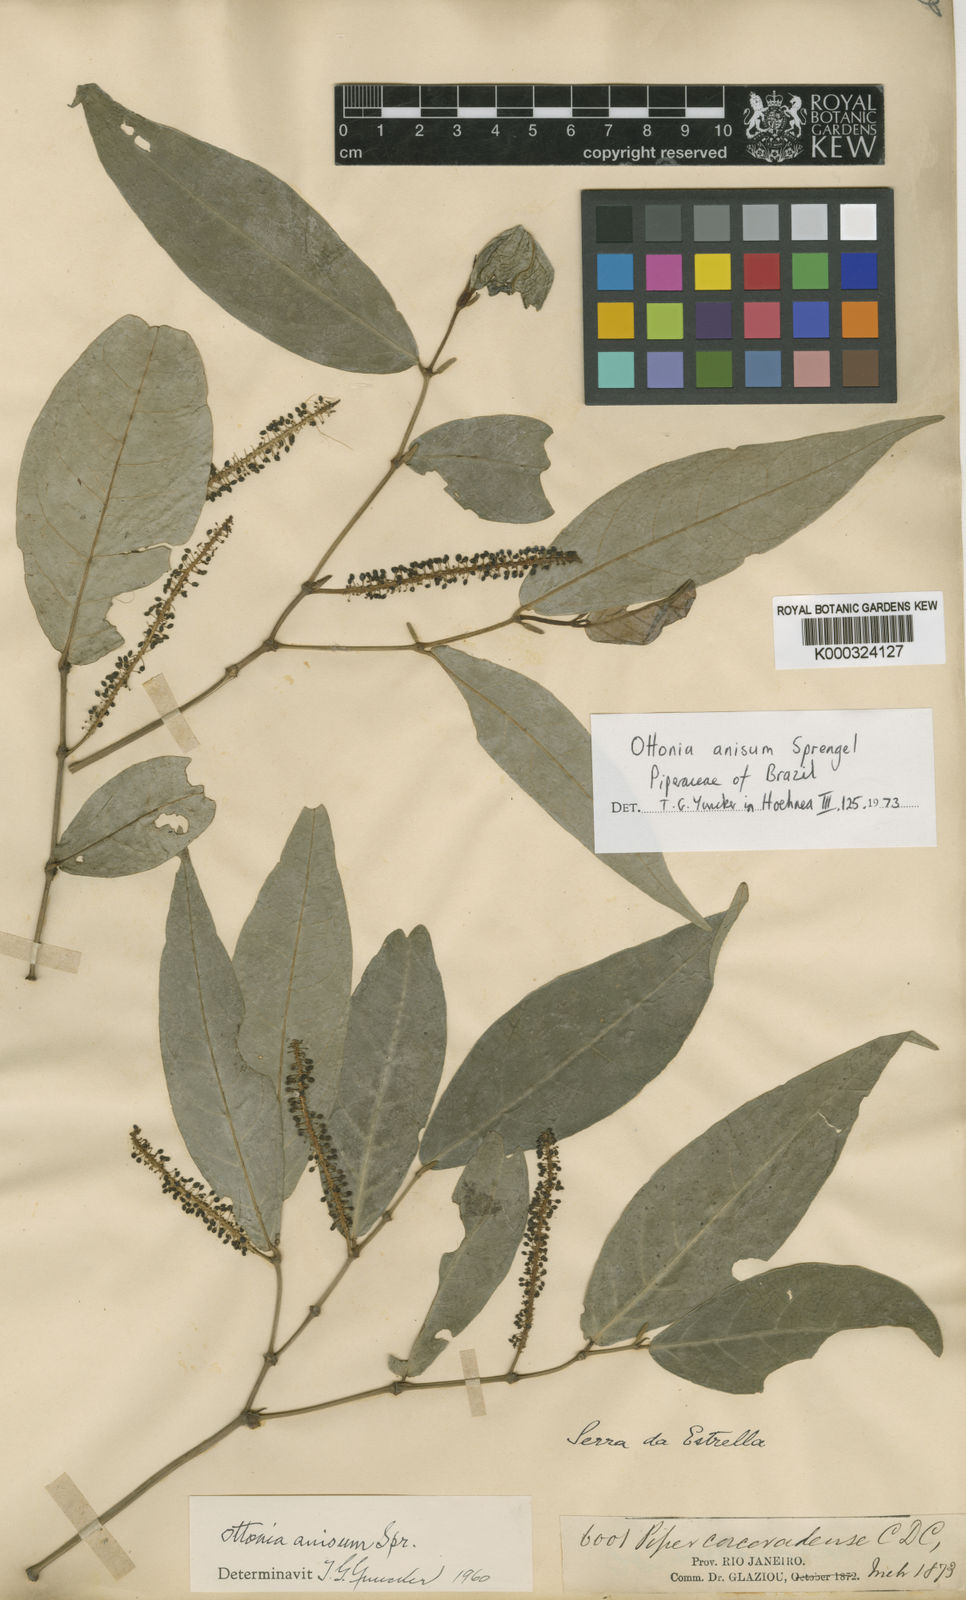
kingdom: Plantae
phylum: Tracheophyta
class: Magnoliopsida
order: Piperales
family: Piperaceae
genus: Piper
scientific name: Piper marginatum
